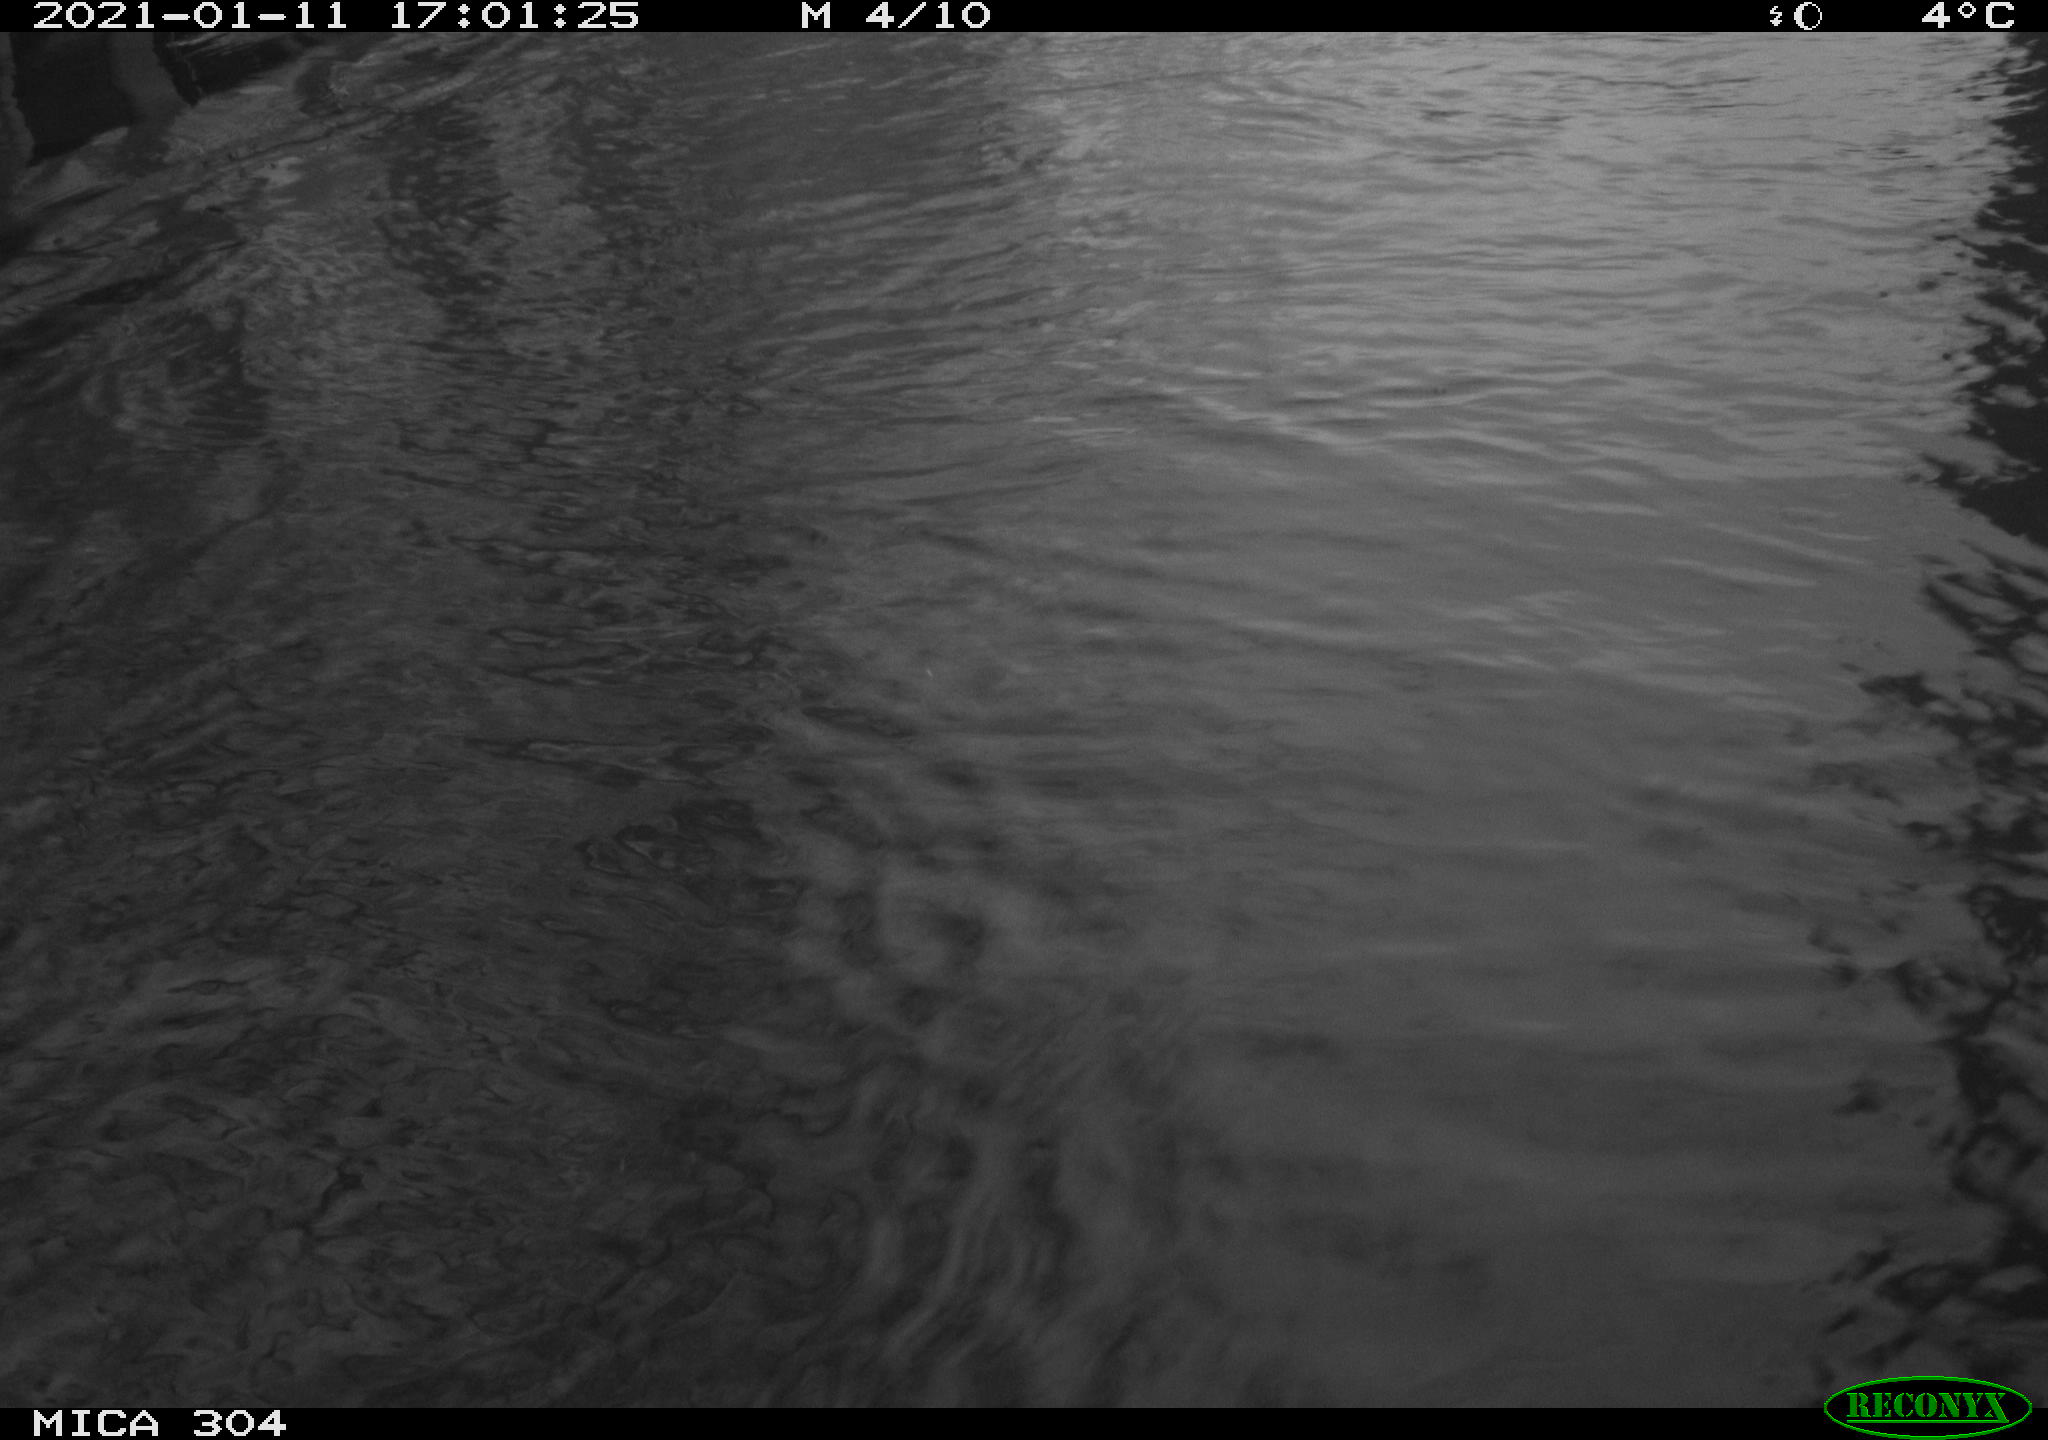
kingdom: Animalia
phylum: Chordata
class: Aves
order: Gruiformes
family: Rallidae
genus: Gallinula
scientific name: Gallinula chloropus
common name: Common moorhen
